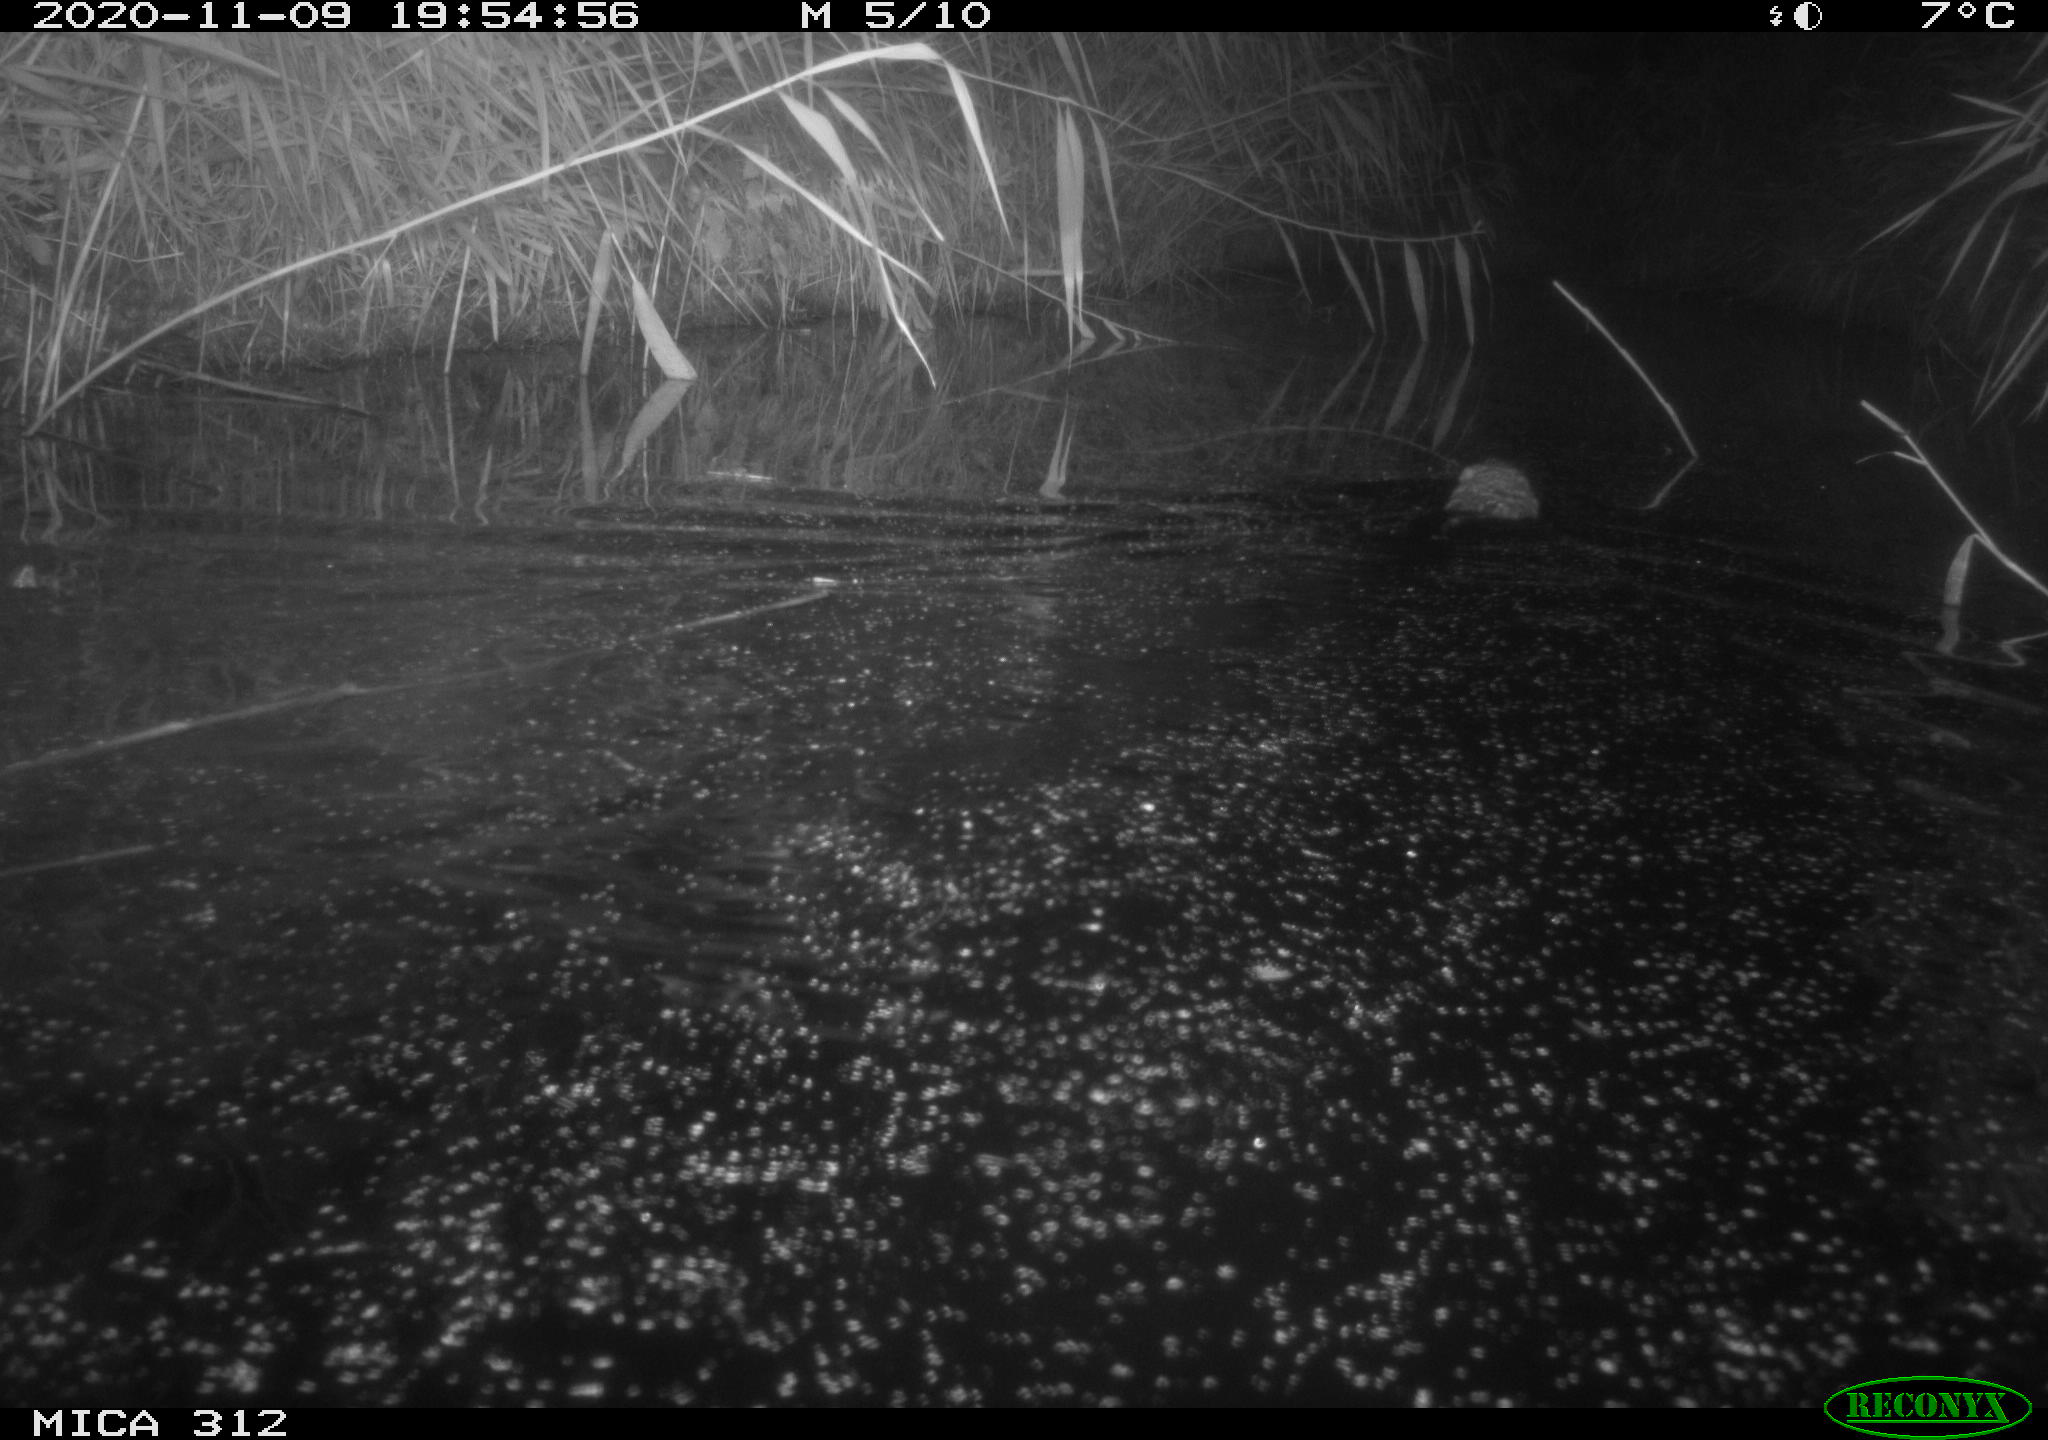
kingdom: Animalia
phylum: Chordata
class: Mammalia
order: Rodentia
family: Cricetidae
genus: Ondatra
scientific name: Ondatra zibethicus
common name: Muskrat
